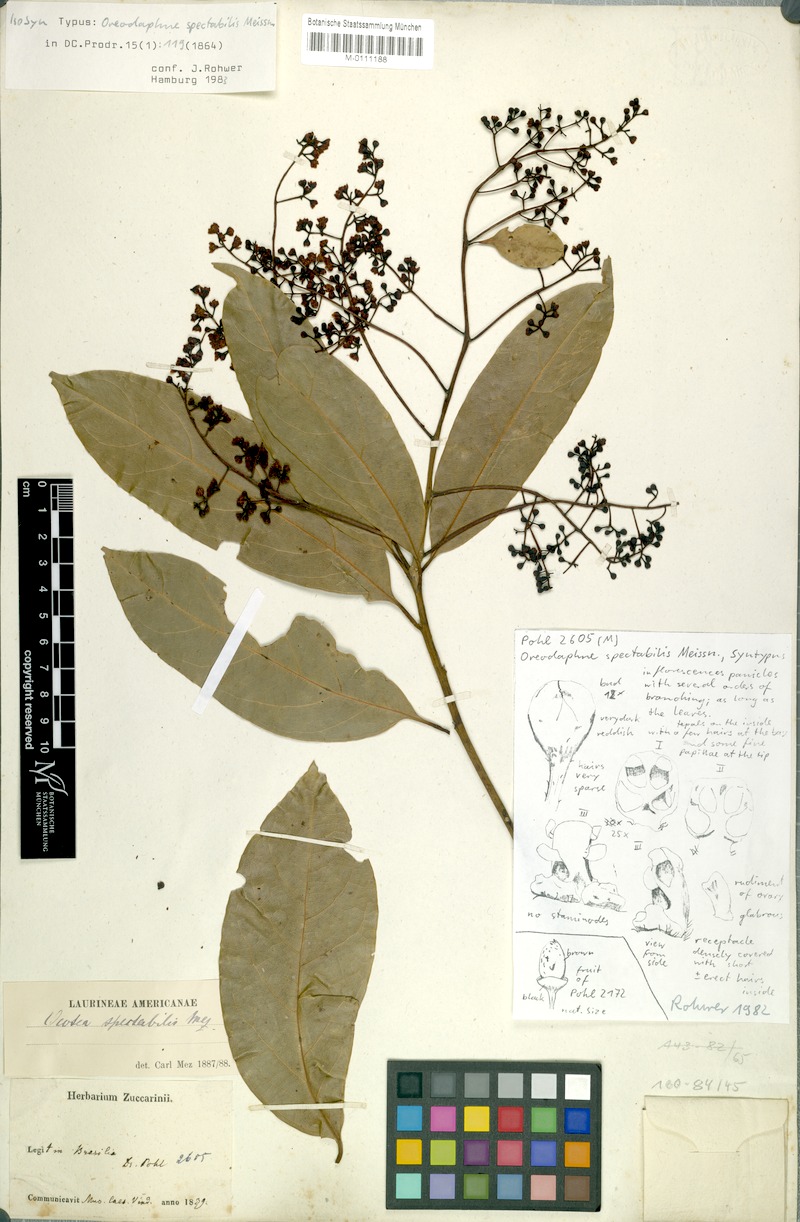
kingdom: Plantae
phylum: Tracheophyta
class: Magnoliopsida
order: Laurales
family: Lauraceae
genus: Ocotea
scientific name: Ocotea spectabilis
